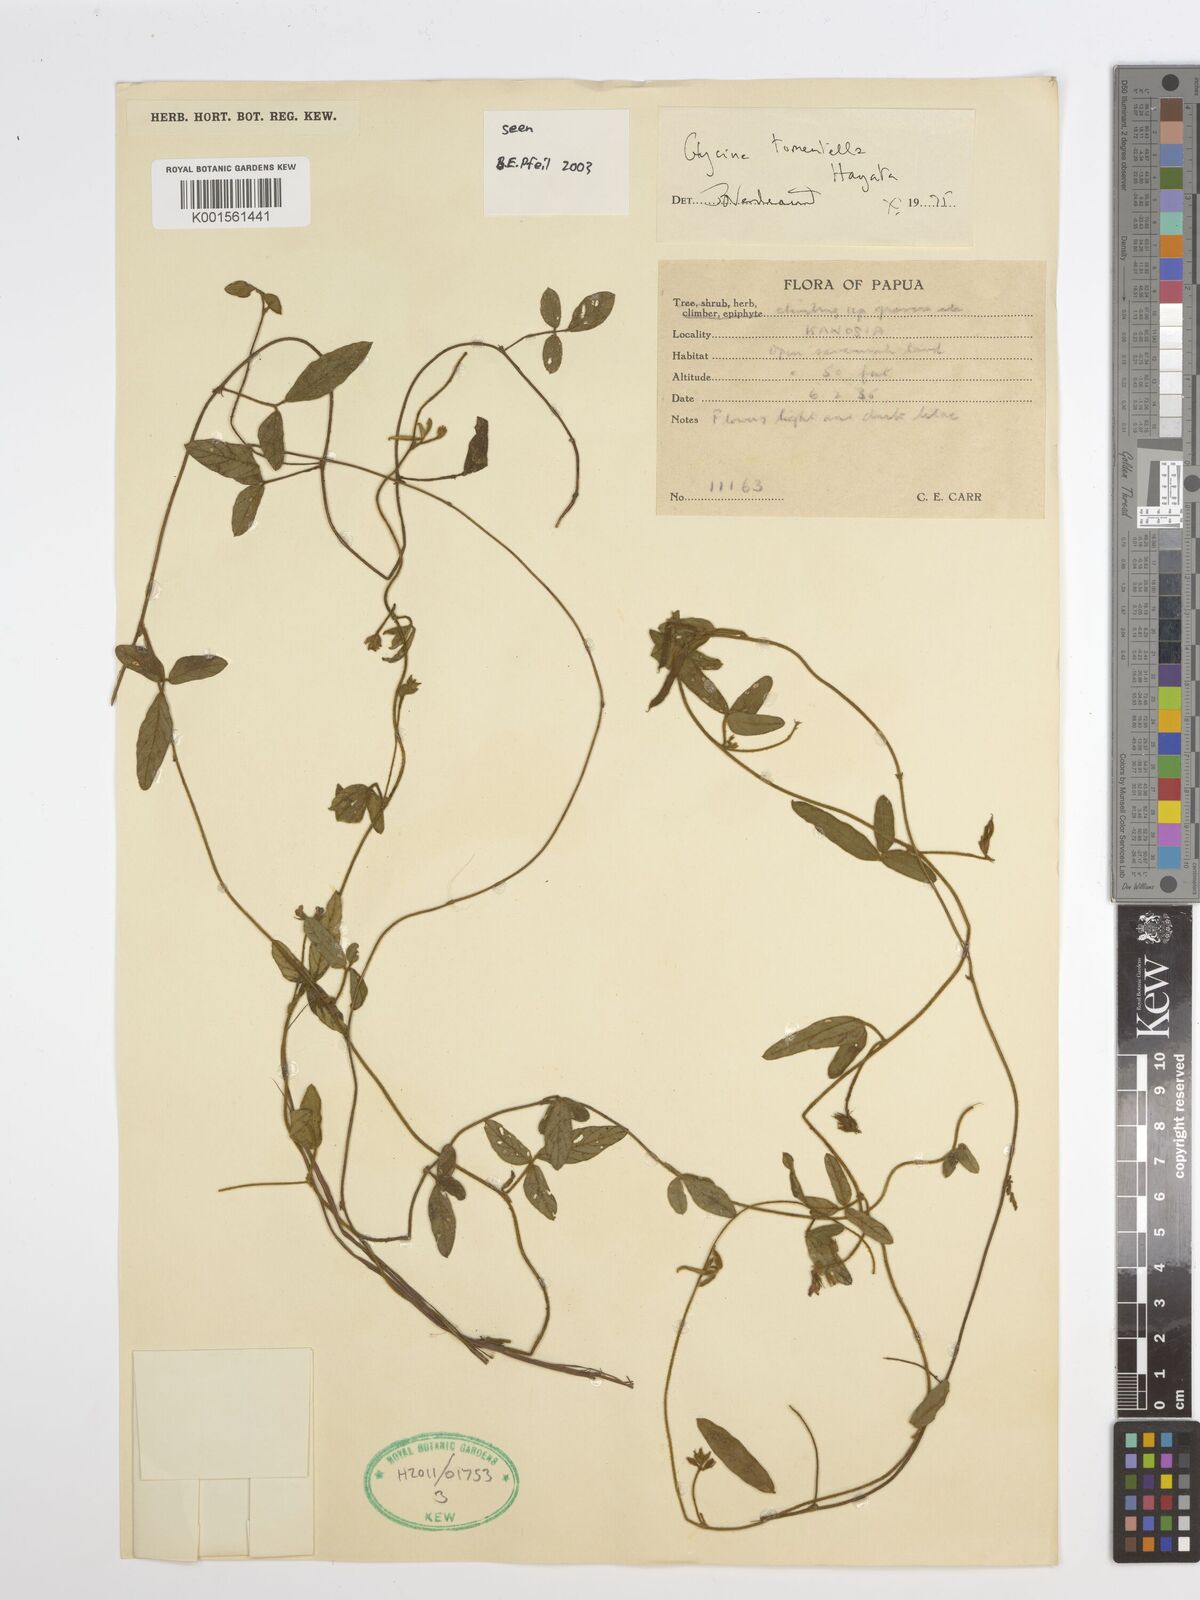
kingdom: Plantae
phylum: Tracheophyta
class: Magnoliopsida
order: Fabales
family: Fabaceae
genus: Glycine
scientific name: Glycine tomentella
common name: Hairy glycine
